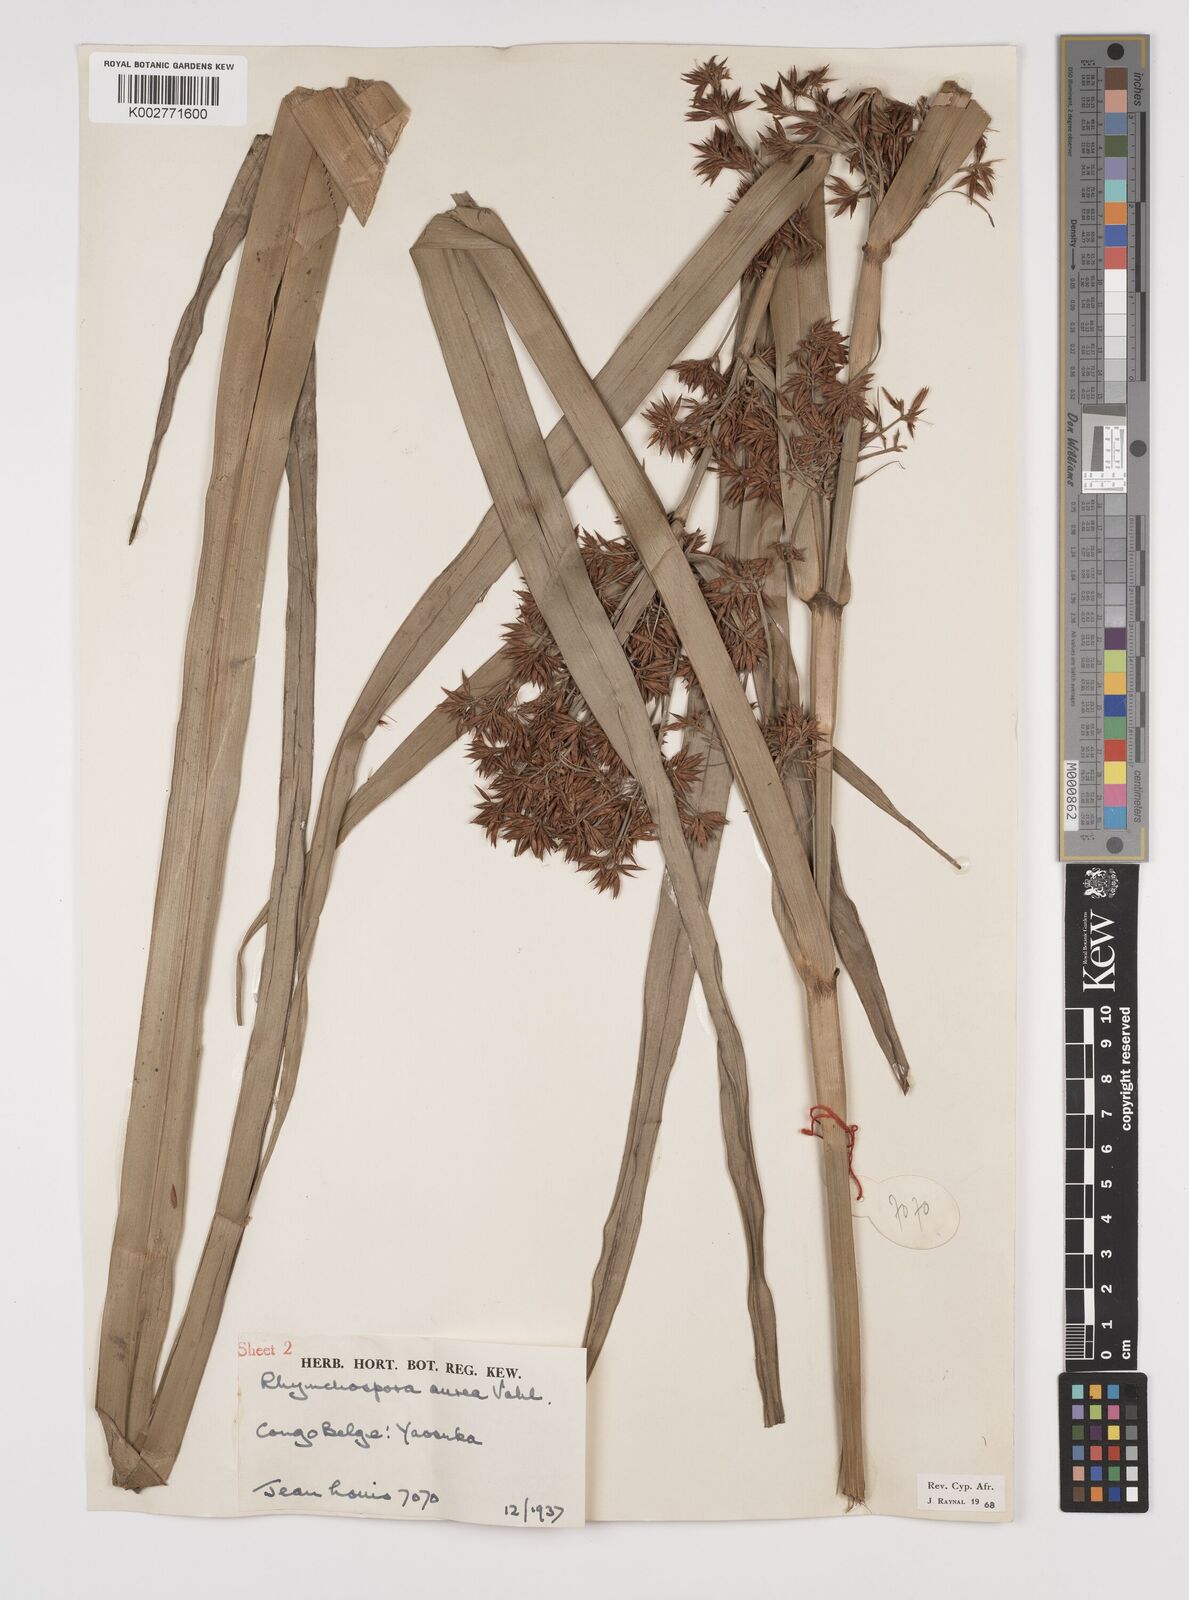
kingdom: Plantae
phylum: Tracheophyta
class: Liliopsida
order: Poales
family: Cyperaceae
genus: Rhynchospora
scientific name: Rhynchospora corymbosa
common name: Golden beak sedge
